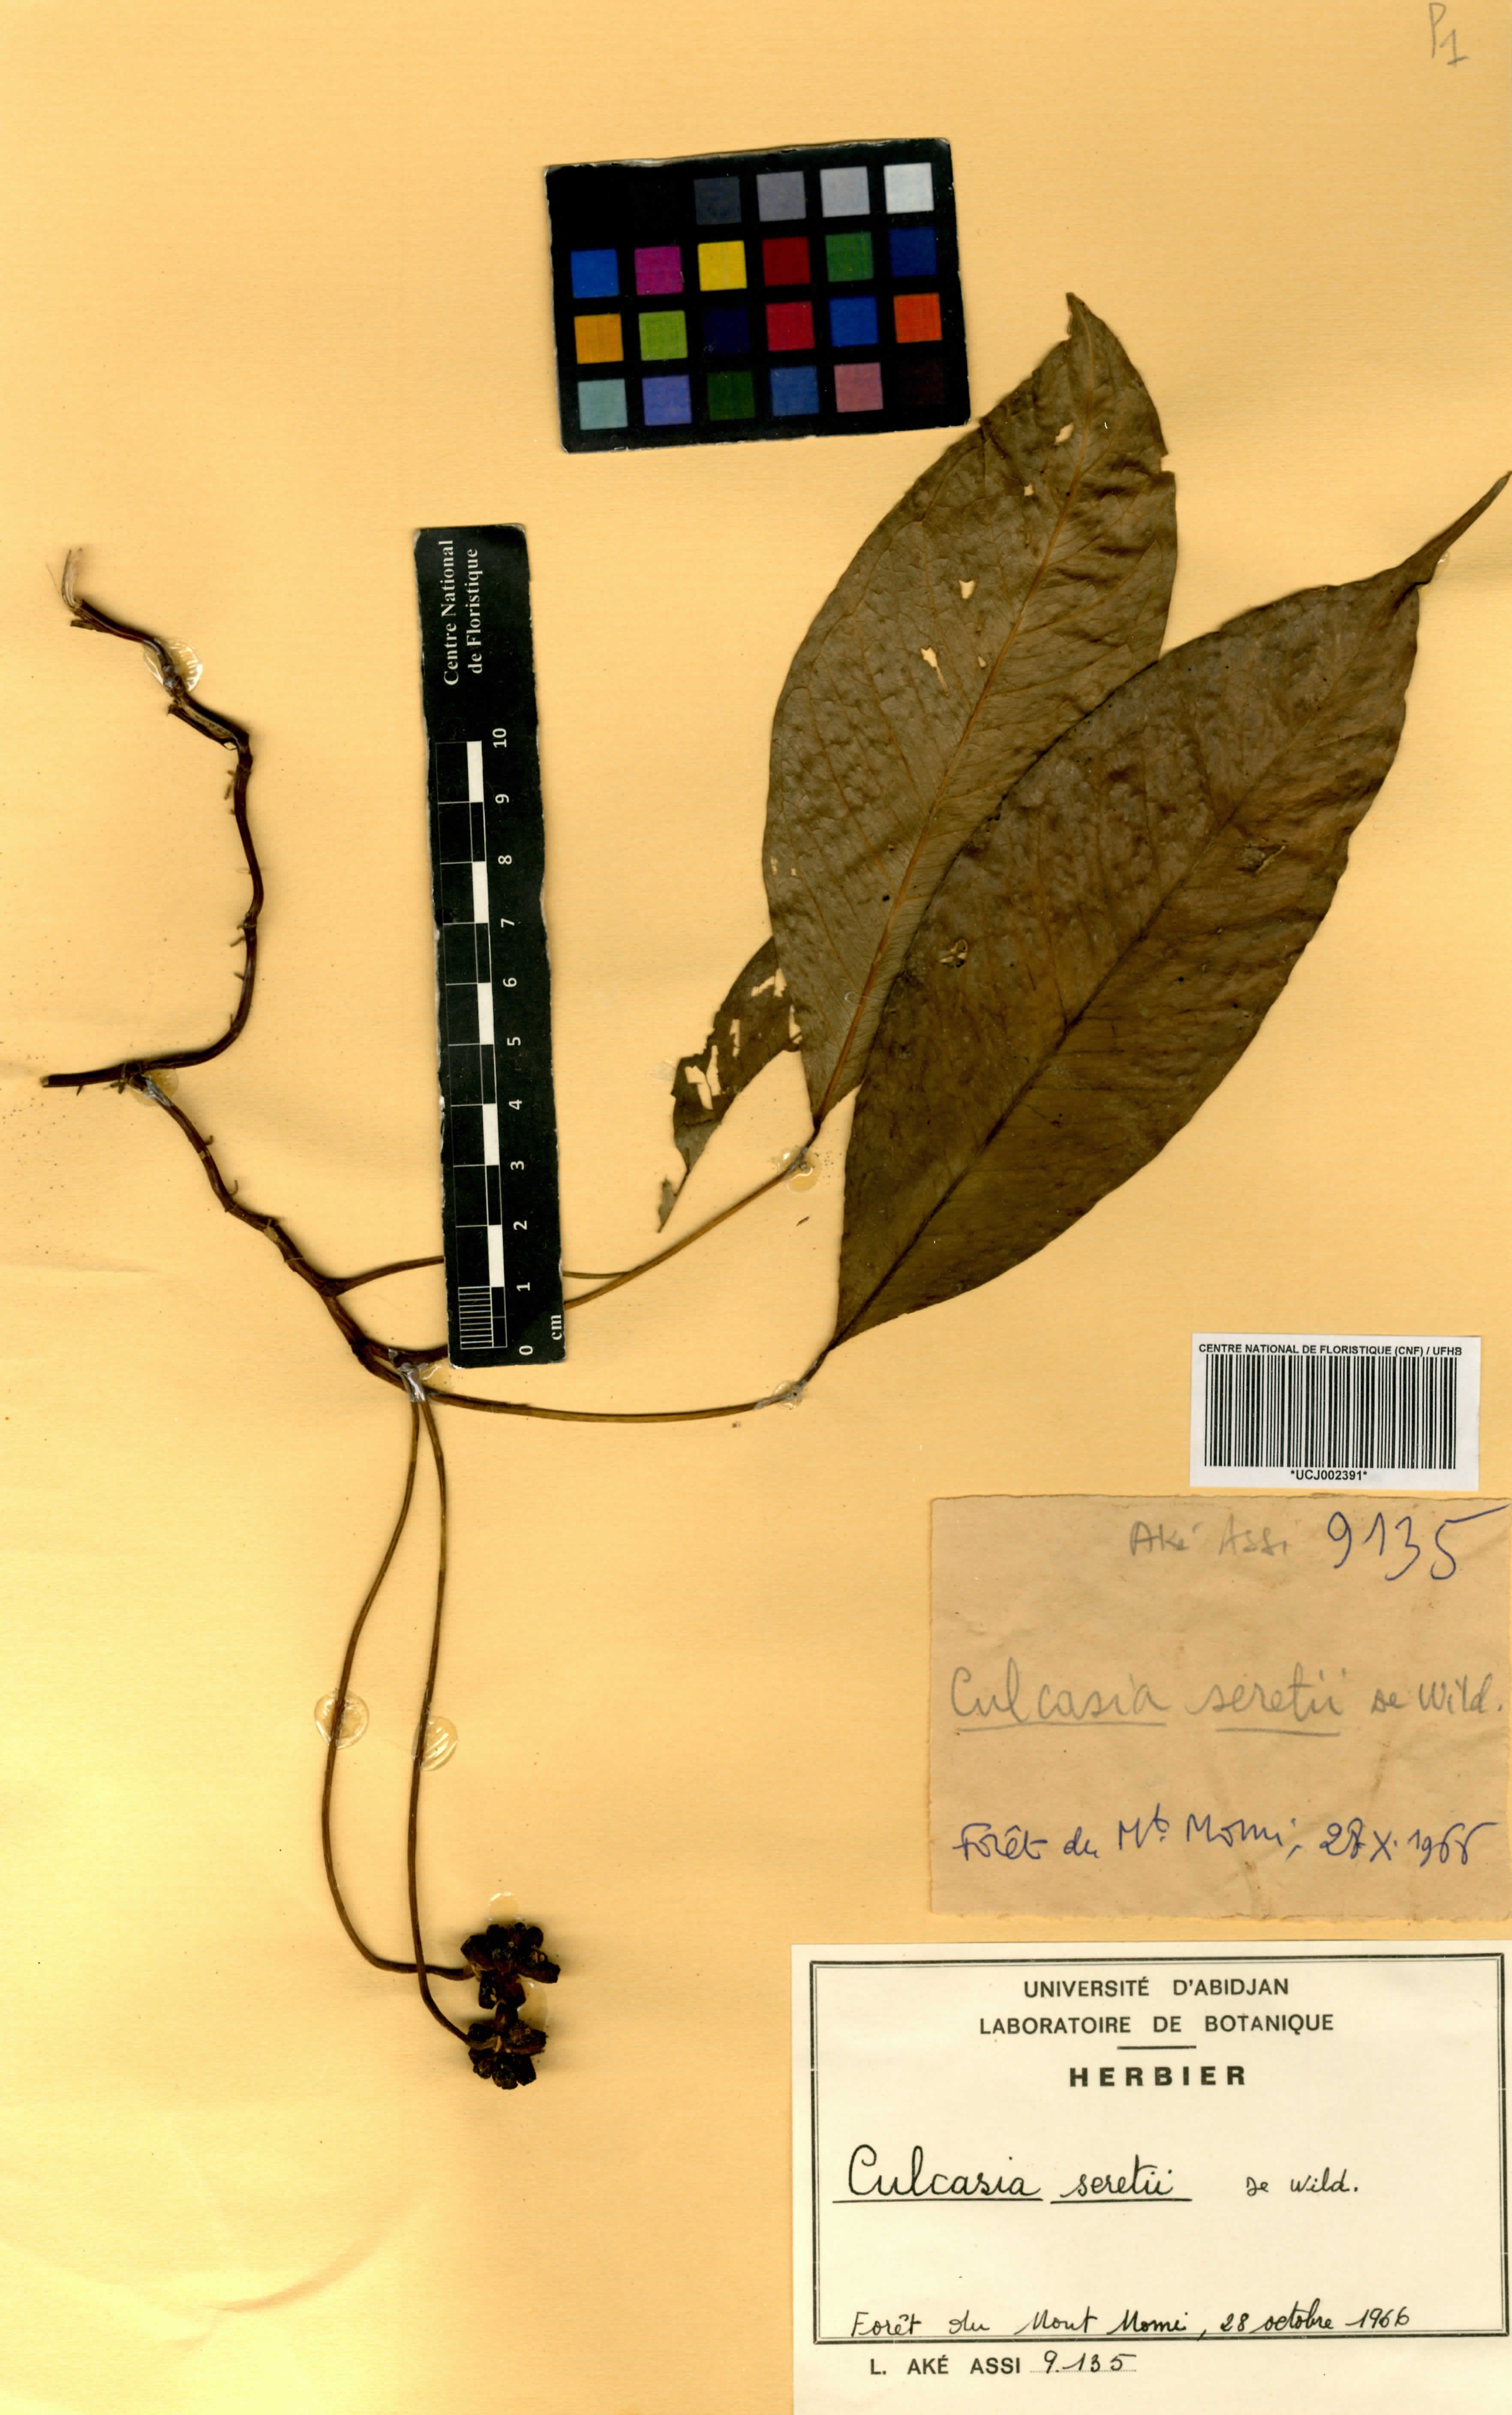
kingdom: Plantae
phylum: Tracheophyta
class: Liliopsida
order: Alismatales
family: Araceae
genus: Culcasia
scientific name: Culcasia seretii
